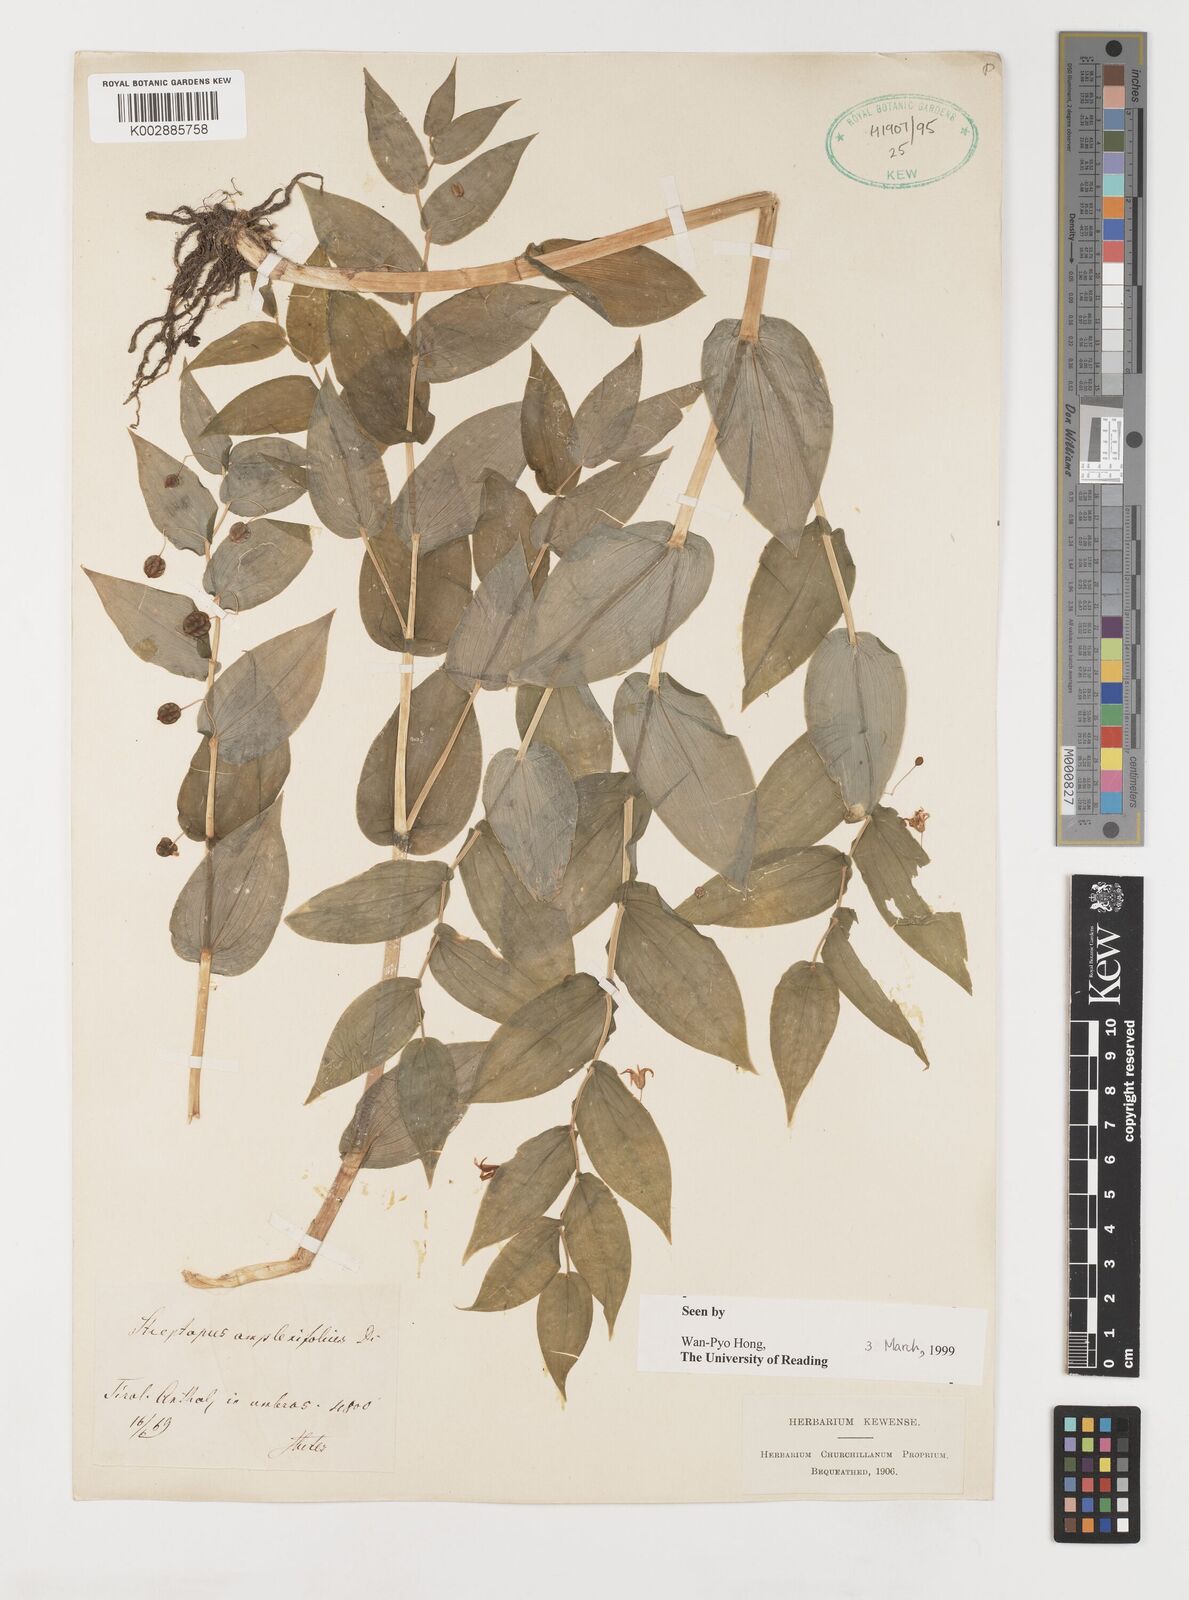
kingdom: Plantae
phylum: Tracheophyta
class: Liliopsida
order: Liliales
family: Liliaceae
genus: Streptopus
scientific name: Streptopus amplexifolius
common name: Clasp twisted stalk
